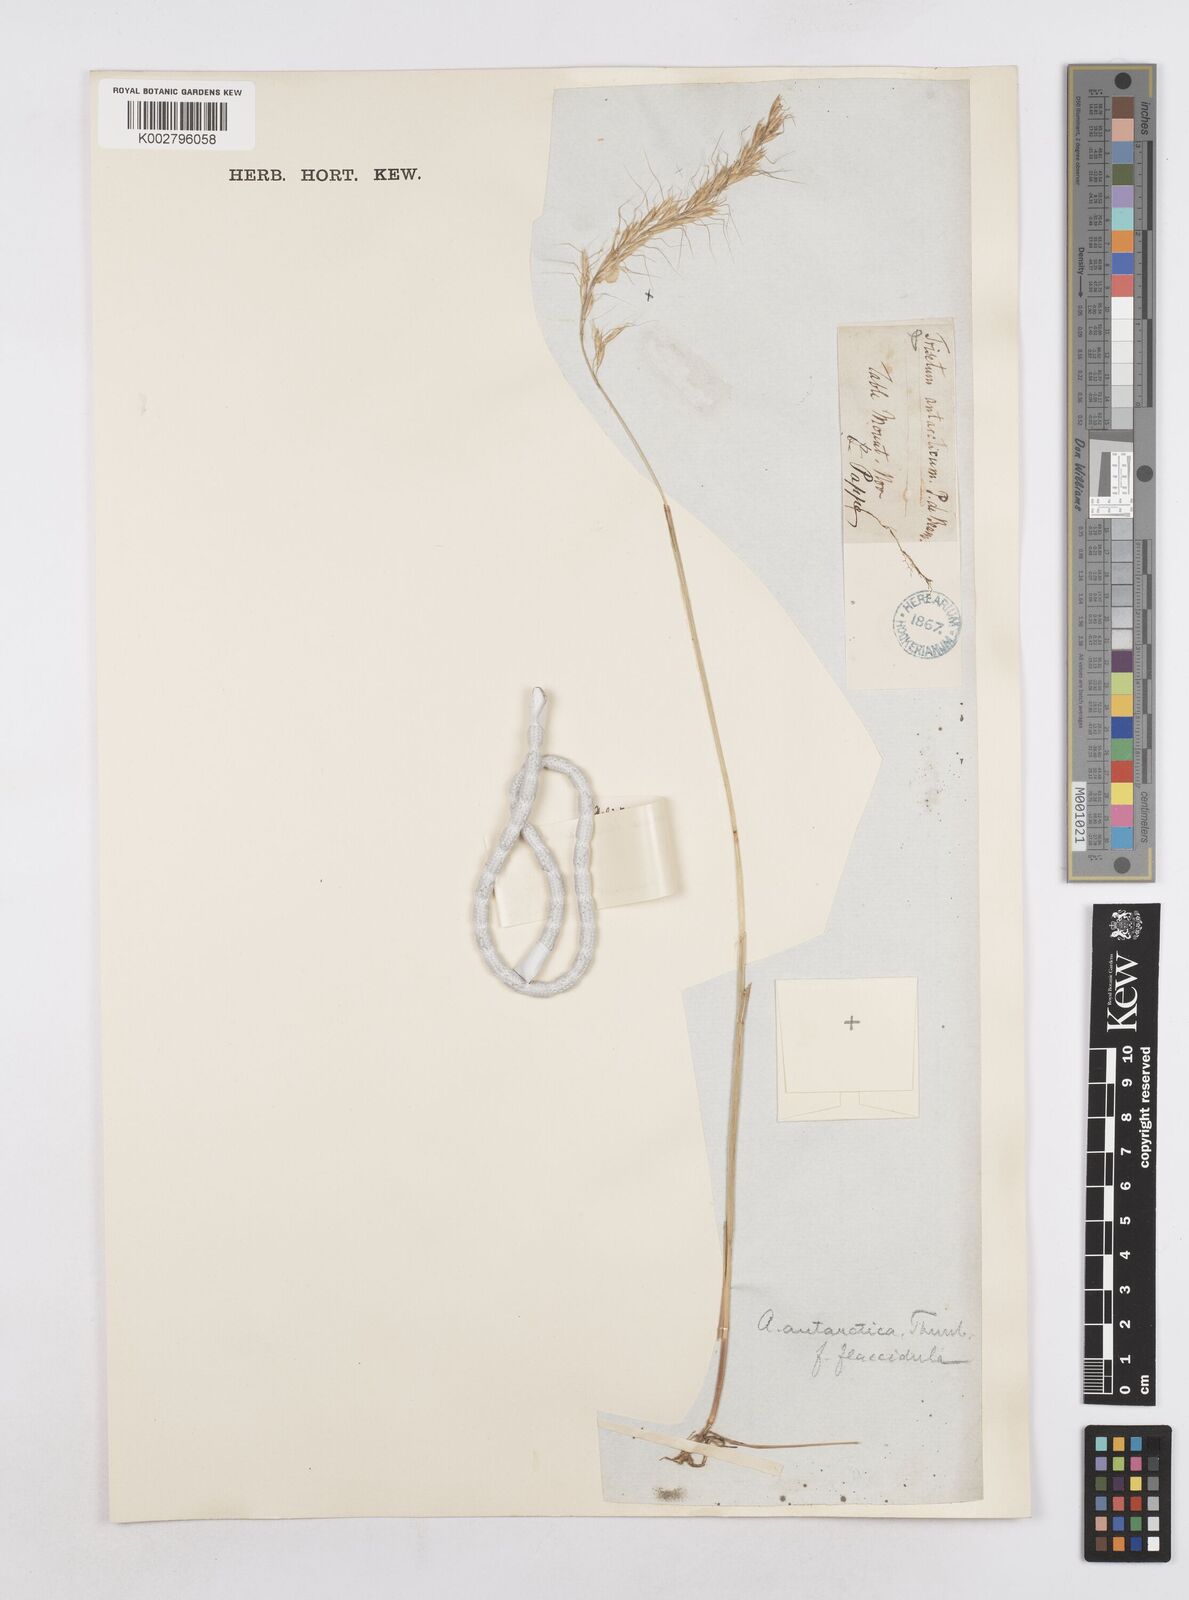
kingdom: Plantae
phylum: Tracheophyta
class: Liliopsida
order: Poales
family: Poaceae
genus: Trisetopsis
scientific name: Trisetopsis capensis
